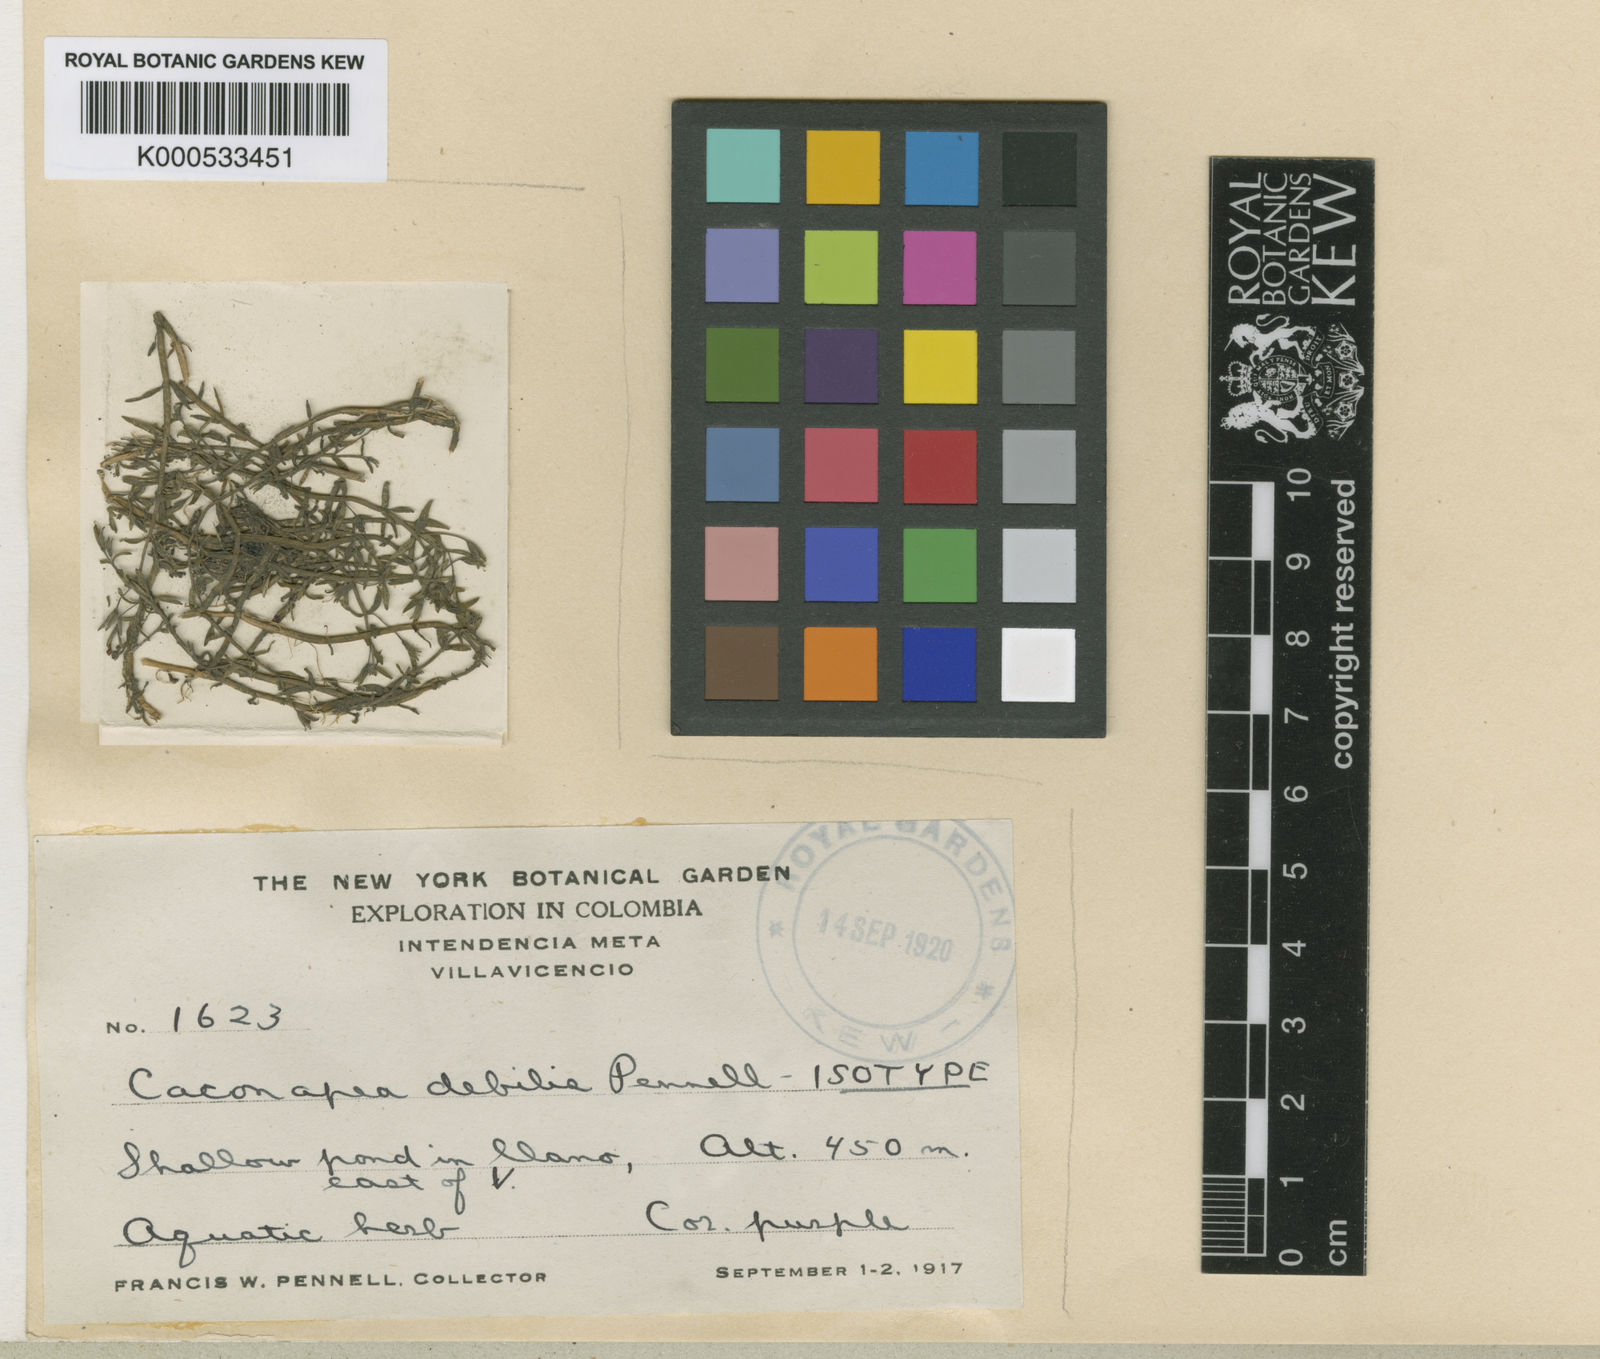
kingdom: Plantae
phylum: Tracheophyta
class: Magnoliopsida
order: Lamiales
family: Plantaginaceae
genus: Bacopa
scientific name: Bacopa
